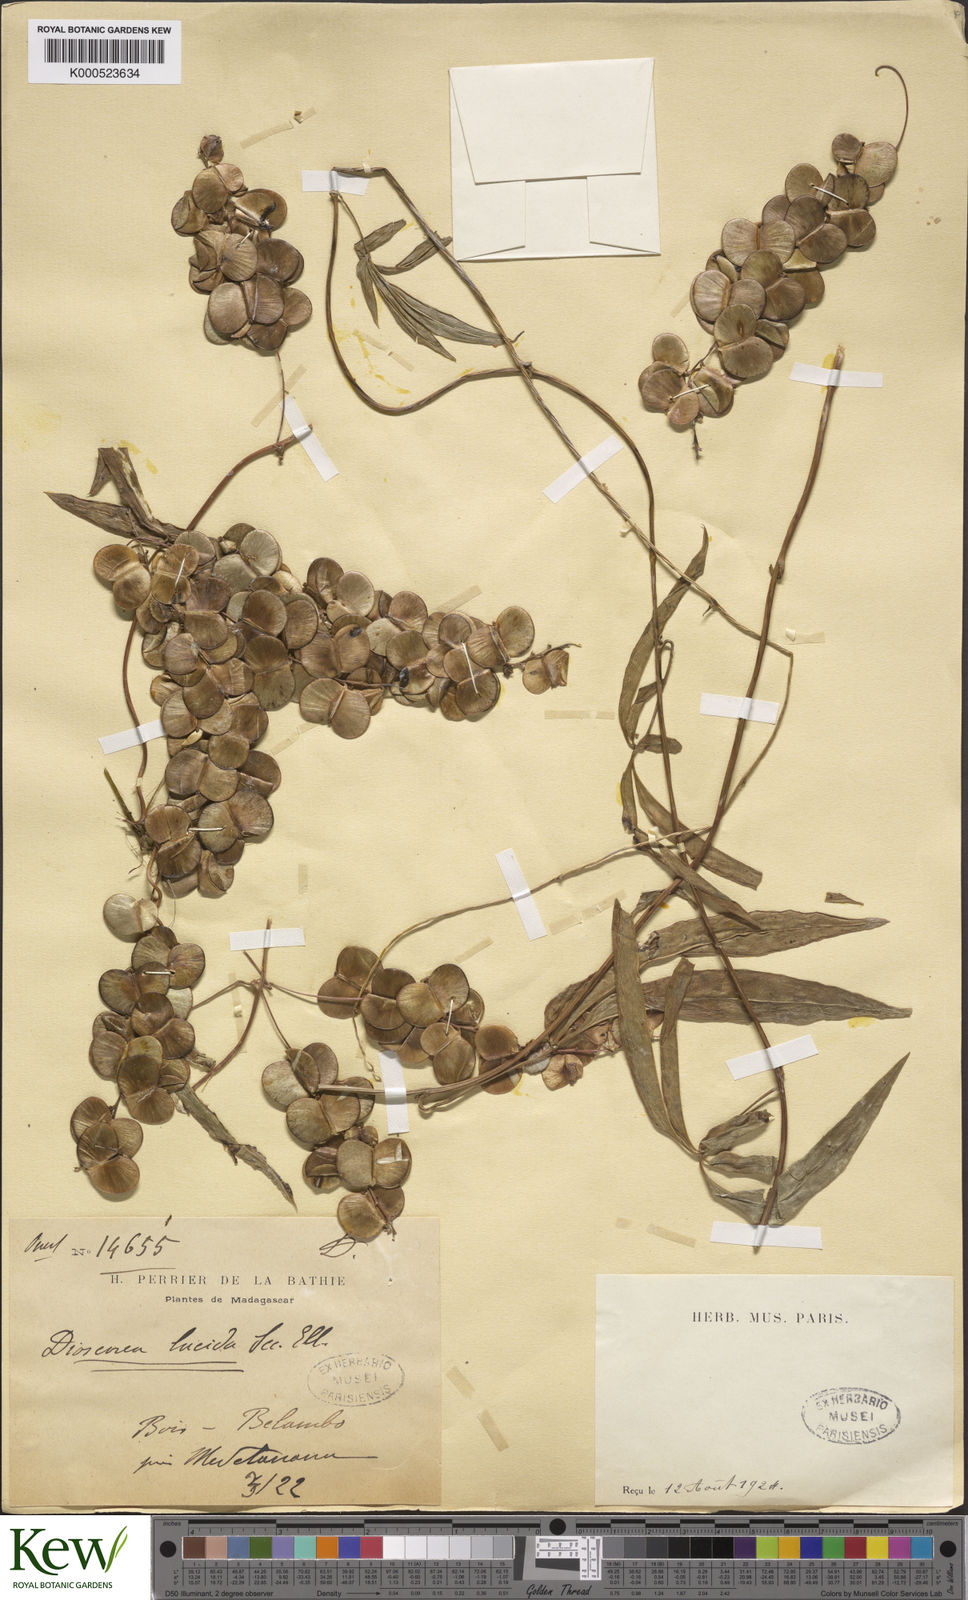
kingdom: Plantae
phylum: Tracheophyta
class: Liliopsida
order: Dioscoreales
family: Dioscoreaceae
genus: Dioscorea
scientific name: Dioscorea bemarivensis
